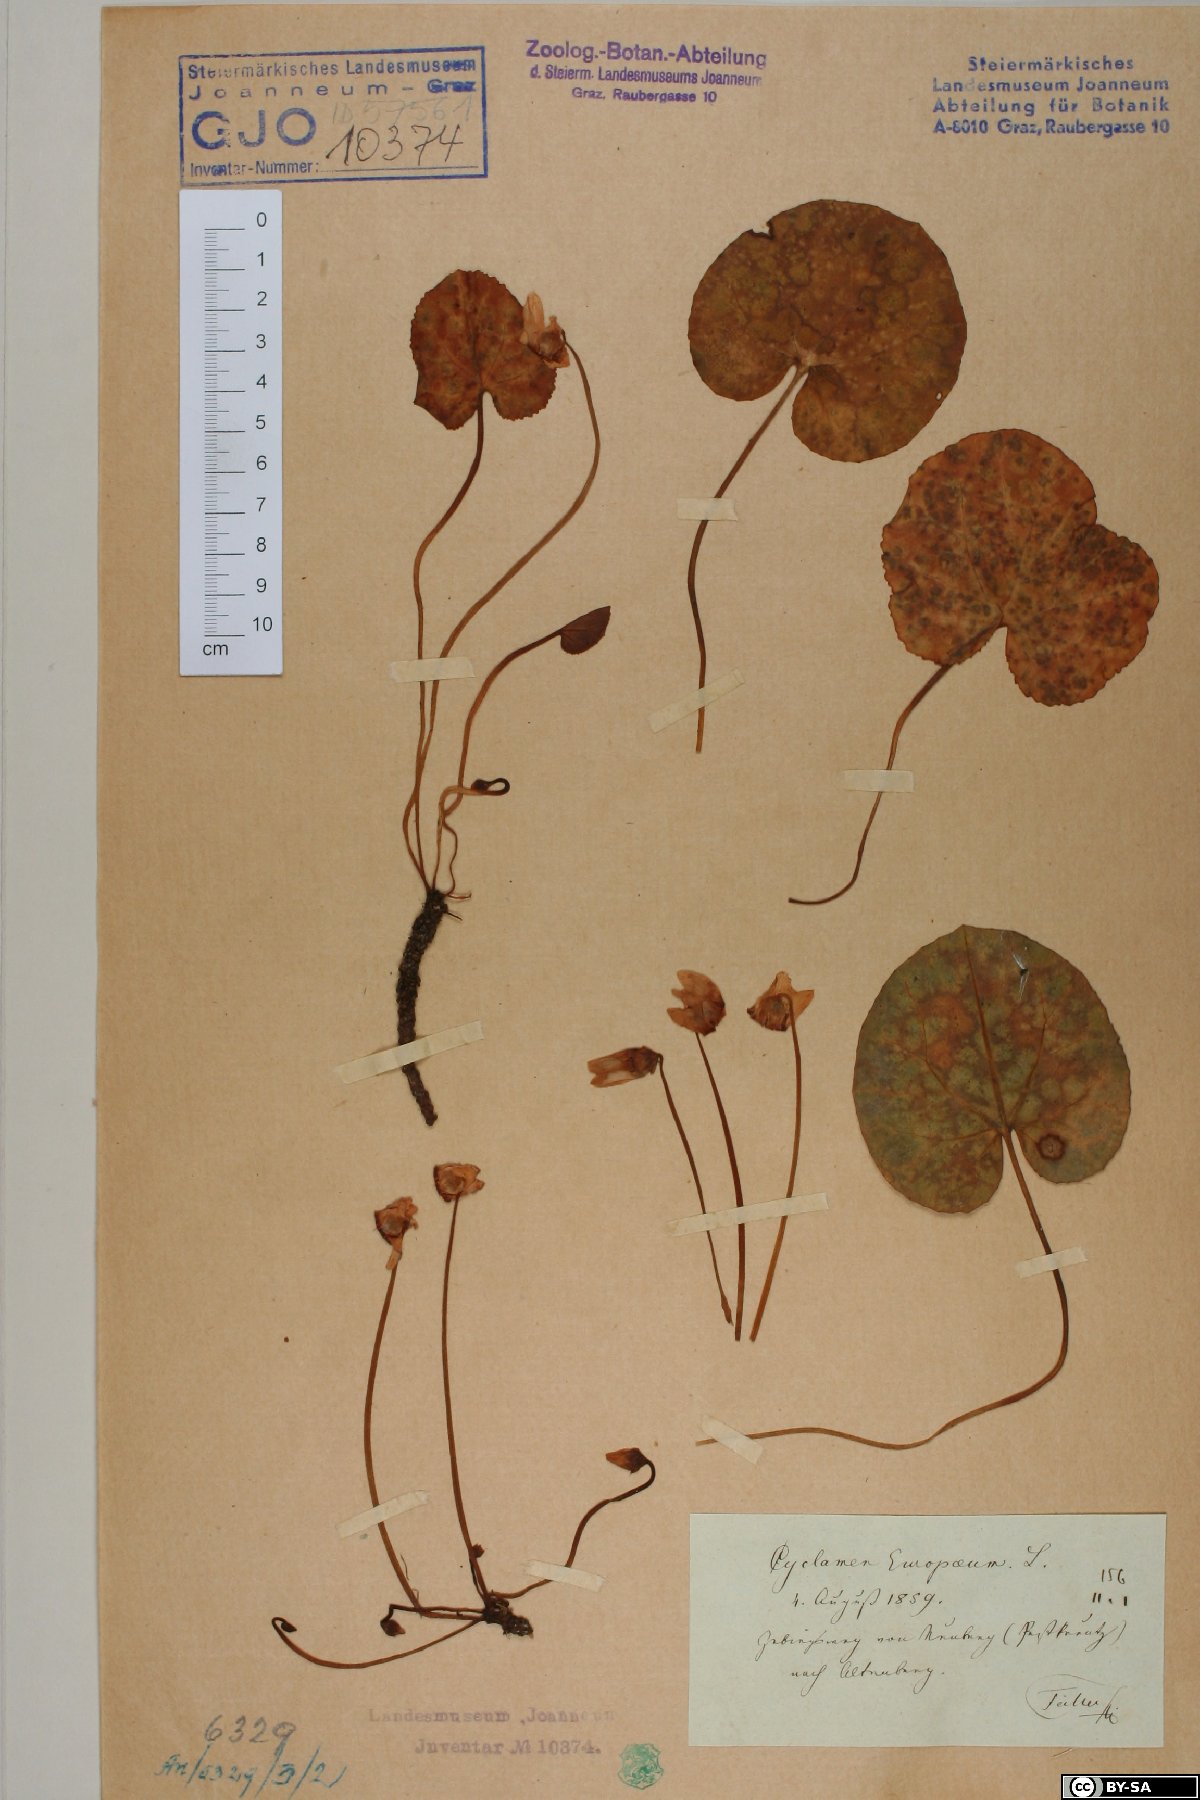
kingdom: Plantae
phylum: Tracheophyta
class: Magnoliopsida
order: Ericales
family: Primulaceae
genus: Cyclamen
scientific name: Cyclamen purpurascens
